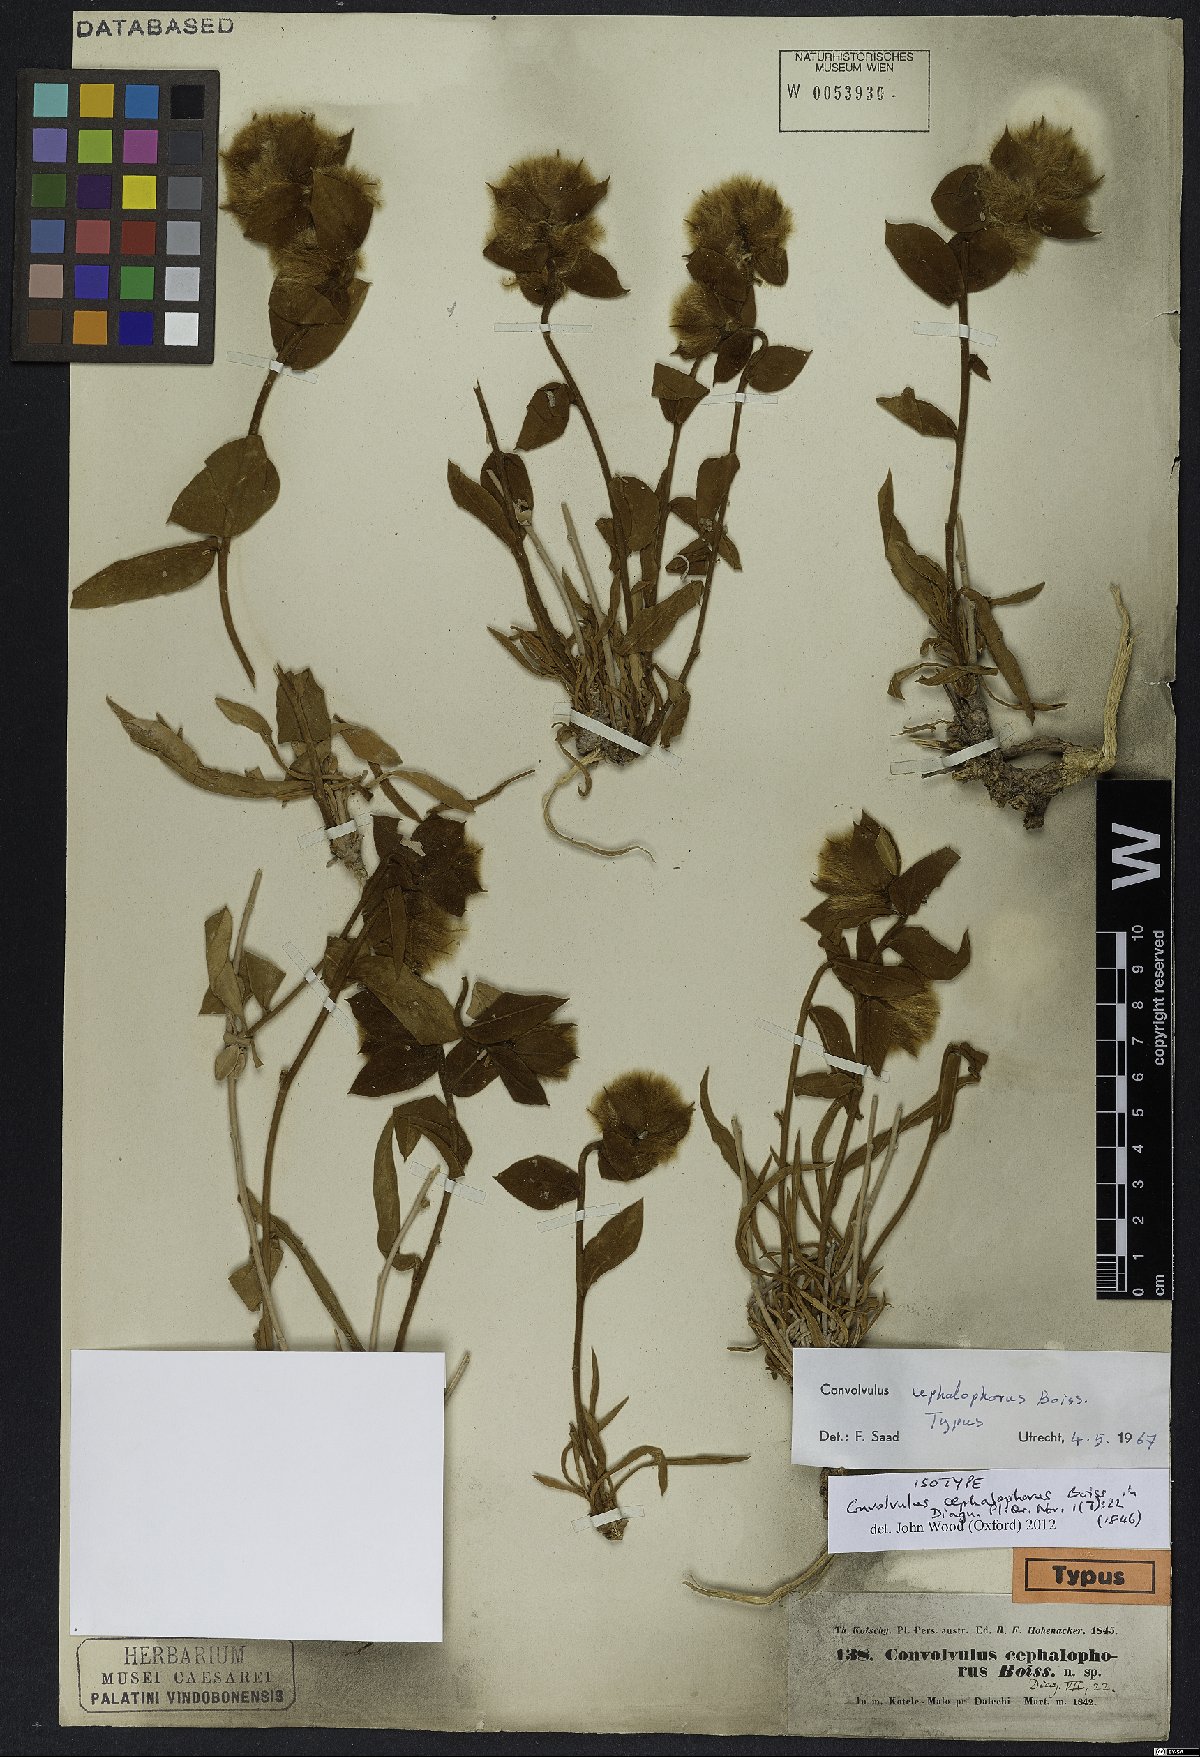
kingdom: Plantae
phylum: Tracheophyta
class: Magnoliopsida
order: Solanales
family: Convolvulaceae
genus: Convolvulus
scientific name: Convolvulus cephalophorus
